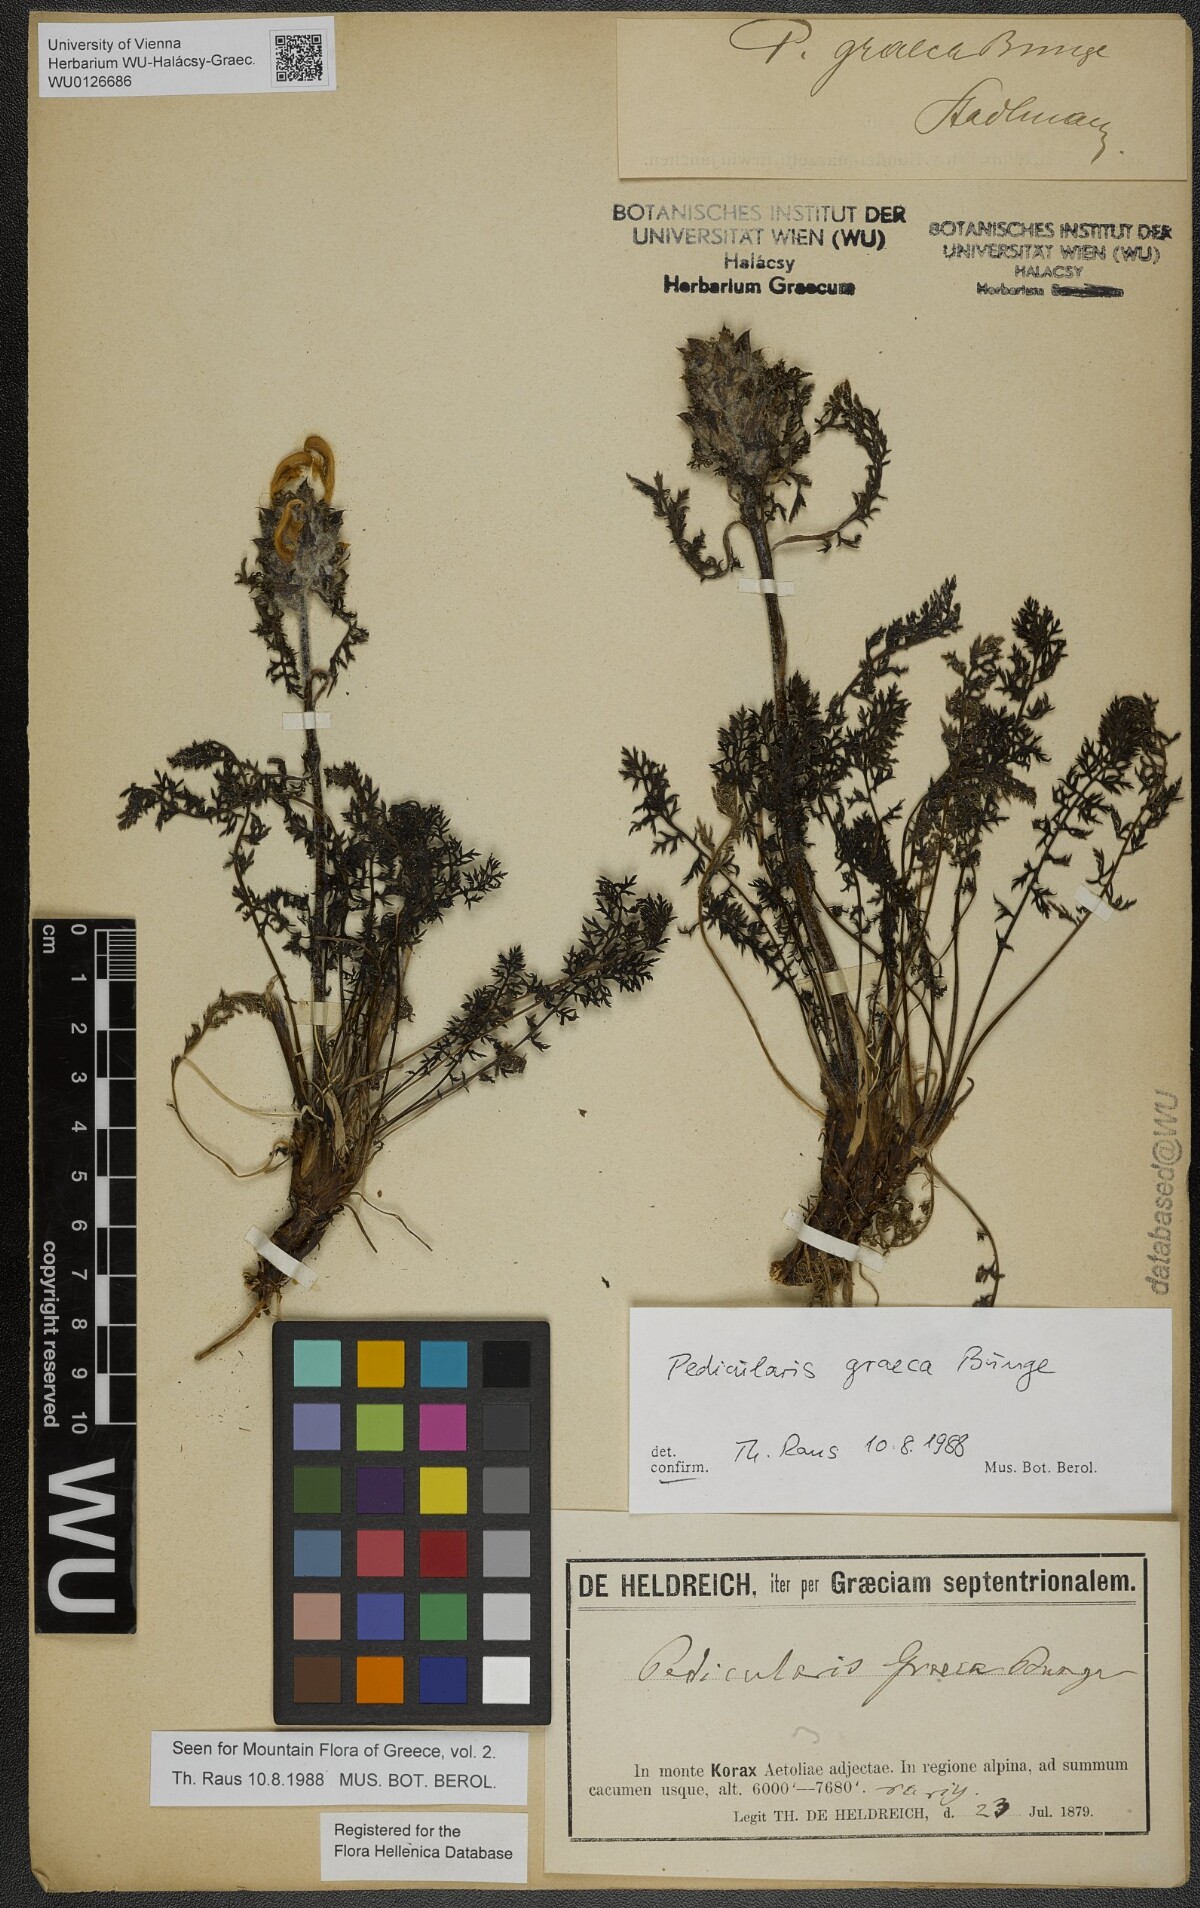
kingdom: Plantae
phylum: Tracheophyta
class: Magnoliopsida
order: Lamiales
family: Orobanchaceae
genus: Pedicularis
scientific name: Pedicularis graeca
